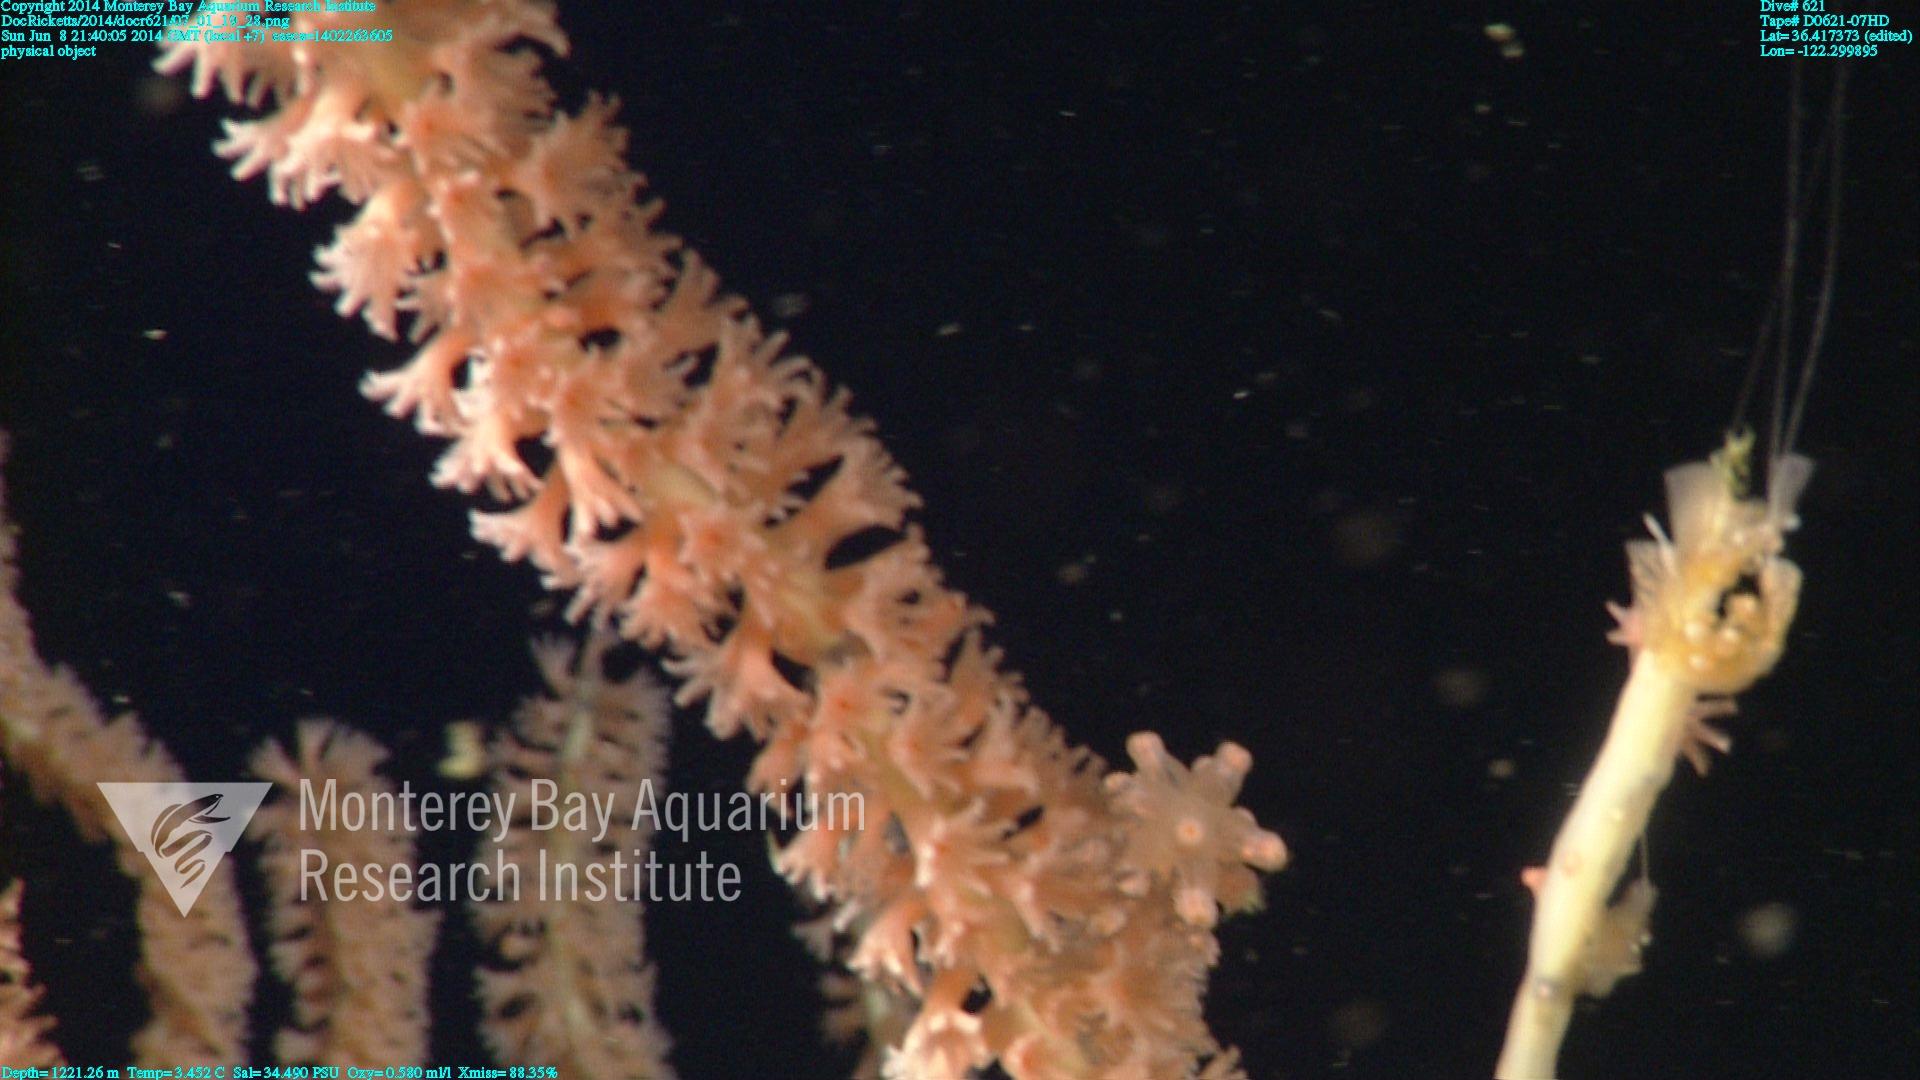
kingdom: Animalia
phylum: Cnidaria
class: Anthozoa
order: Scleralcyonacea
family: Keratoisididae
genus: Keratoisis
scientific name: Keratoisis
